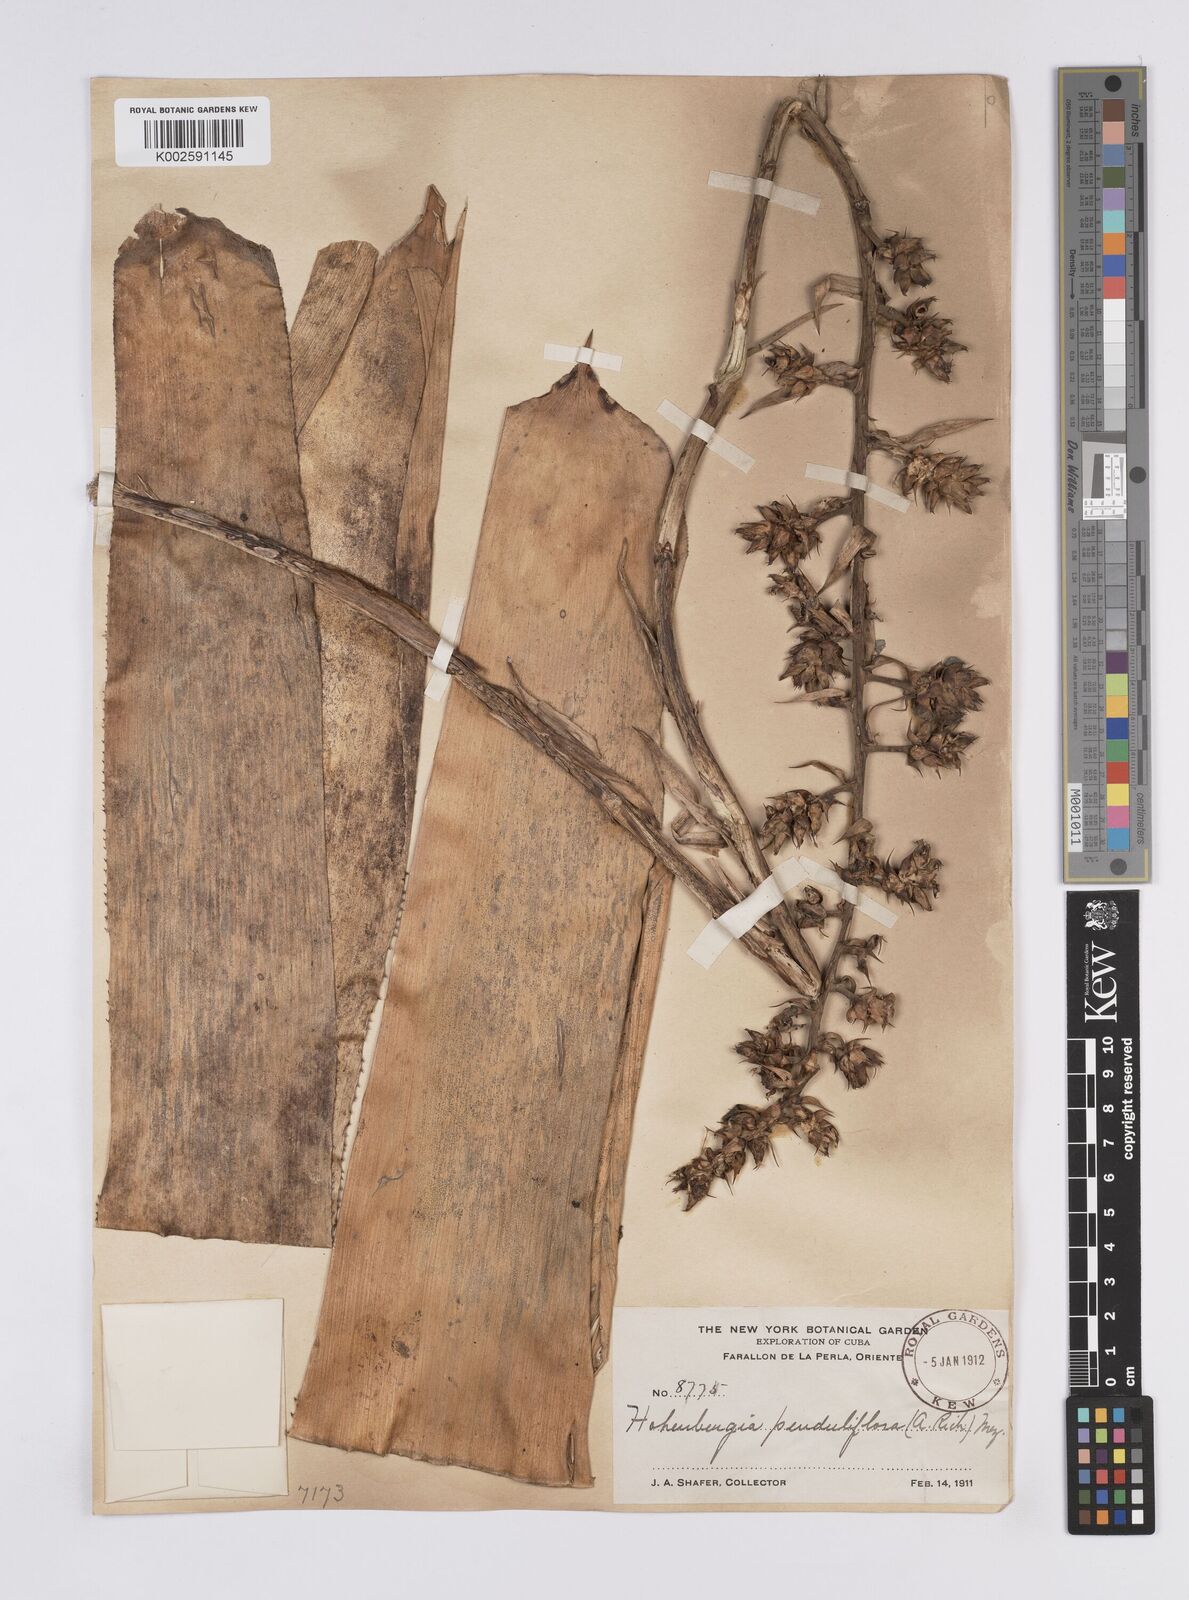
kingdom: Plantae
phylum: Tracheophyta
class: Liliopsida
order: Poales
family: Bromeliaceae
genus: Wittmackia
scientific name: Wittmackia penduliflora
